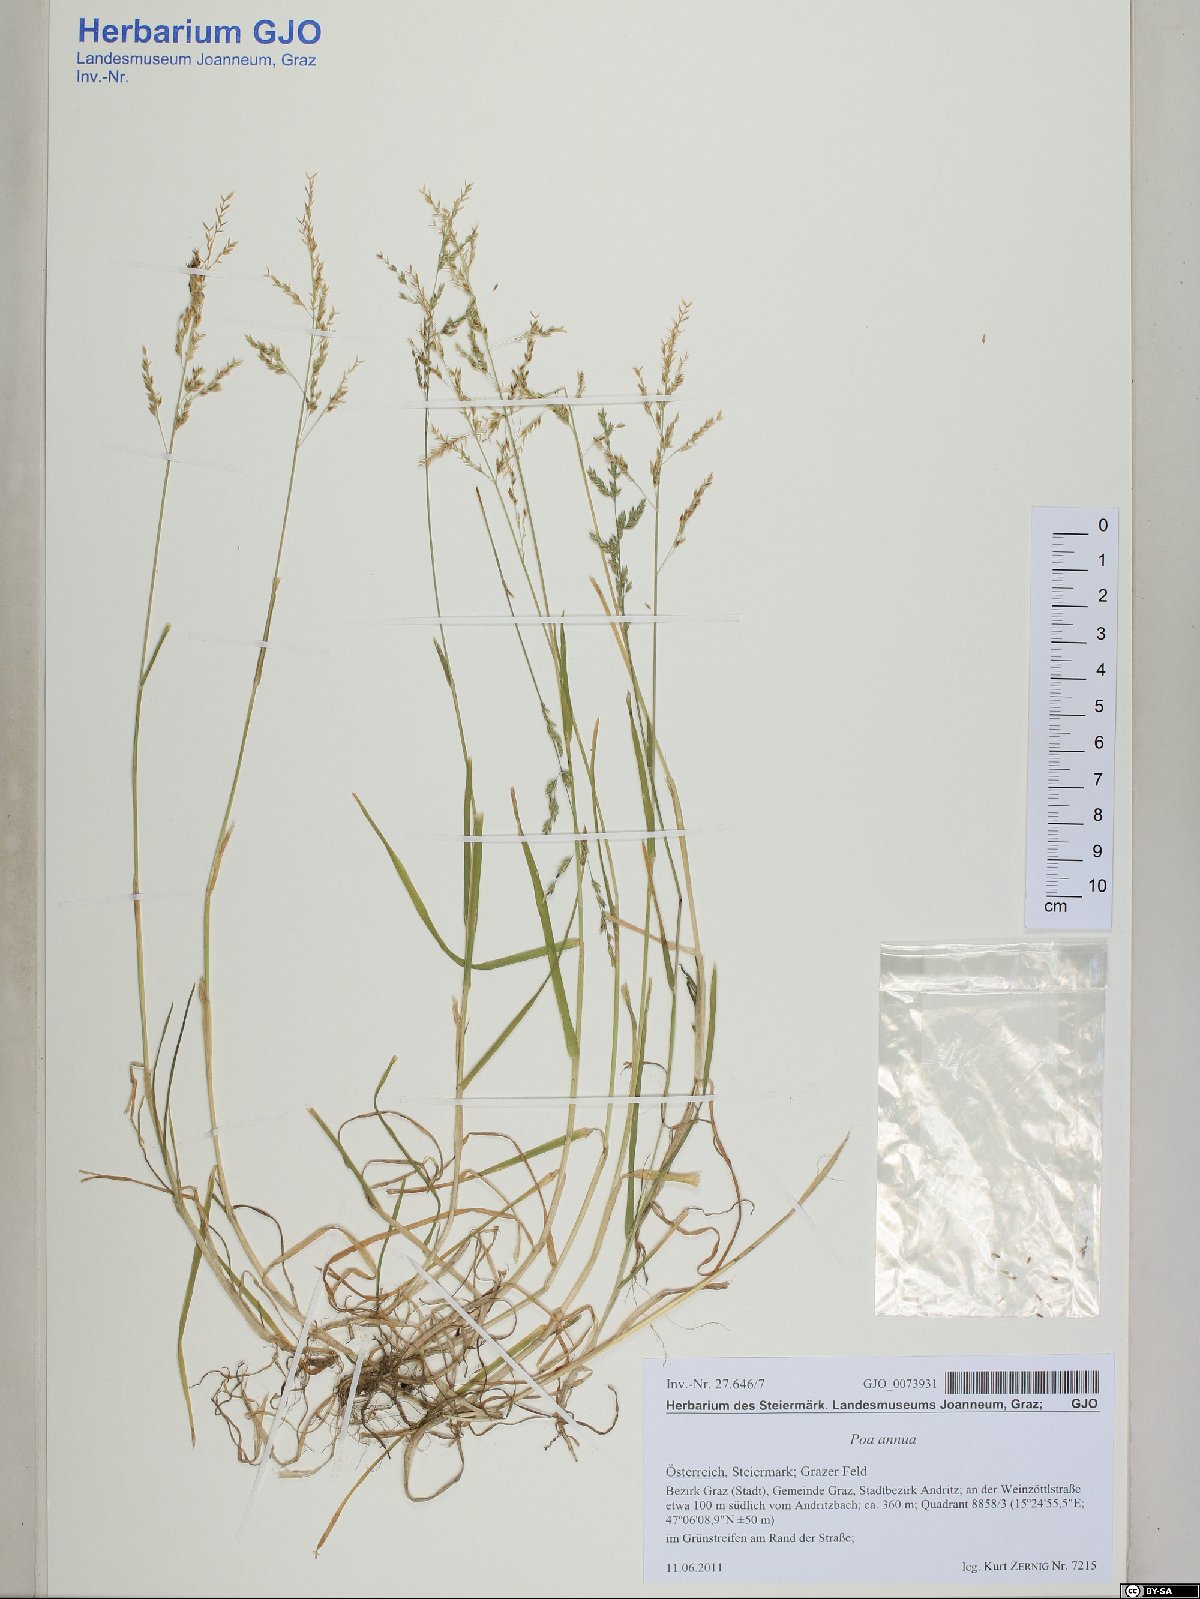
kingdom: Plantae
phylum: Tracheophyta
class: Liliopsida
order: Poales
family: Poaceae
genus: Poa
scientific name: Poa annua
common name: Annual bluegrass
